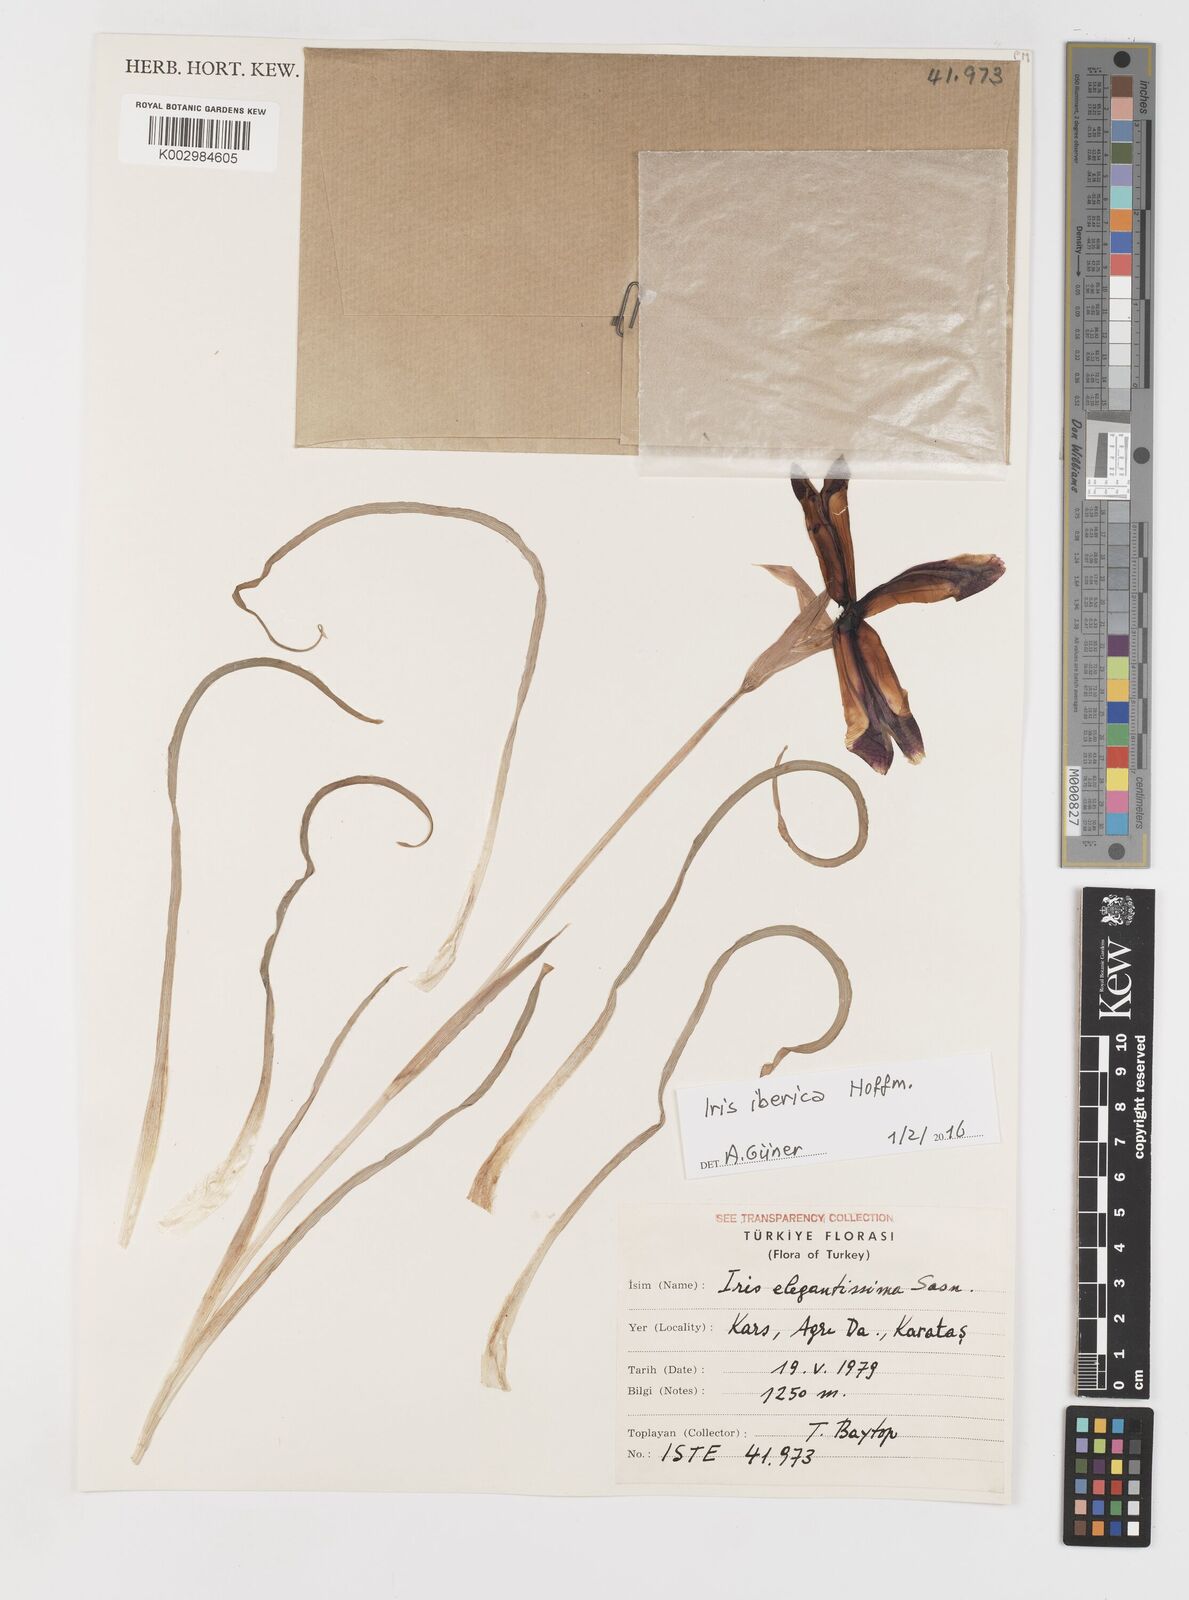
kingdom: Plantae
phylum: Tracheophyta
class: Liliopsida
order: Asparagales
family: Iridaceae
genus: Iris
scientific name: Iris iberica
